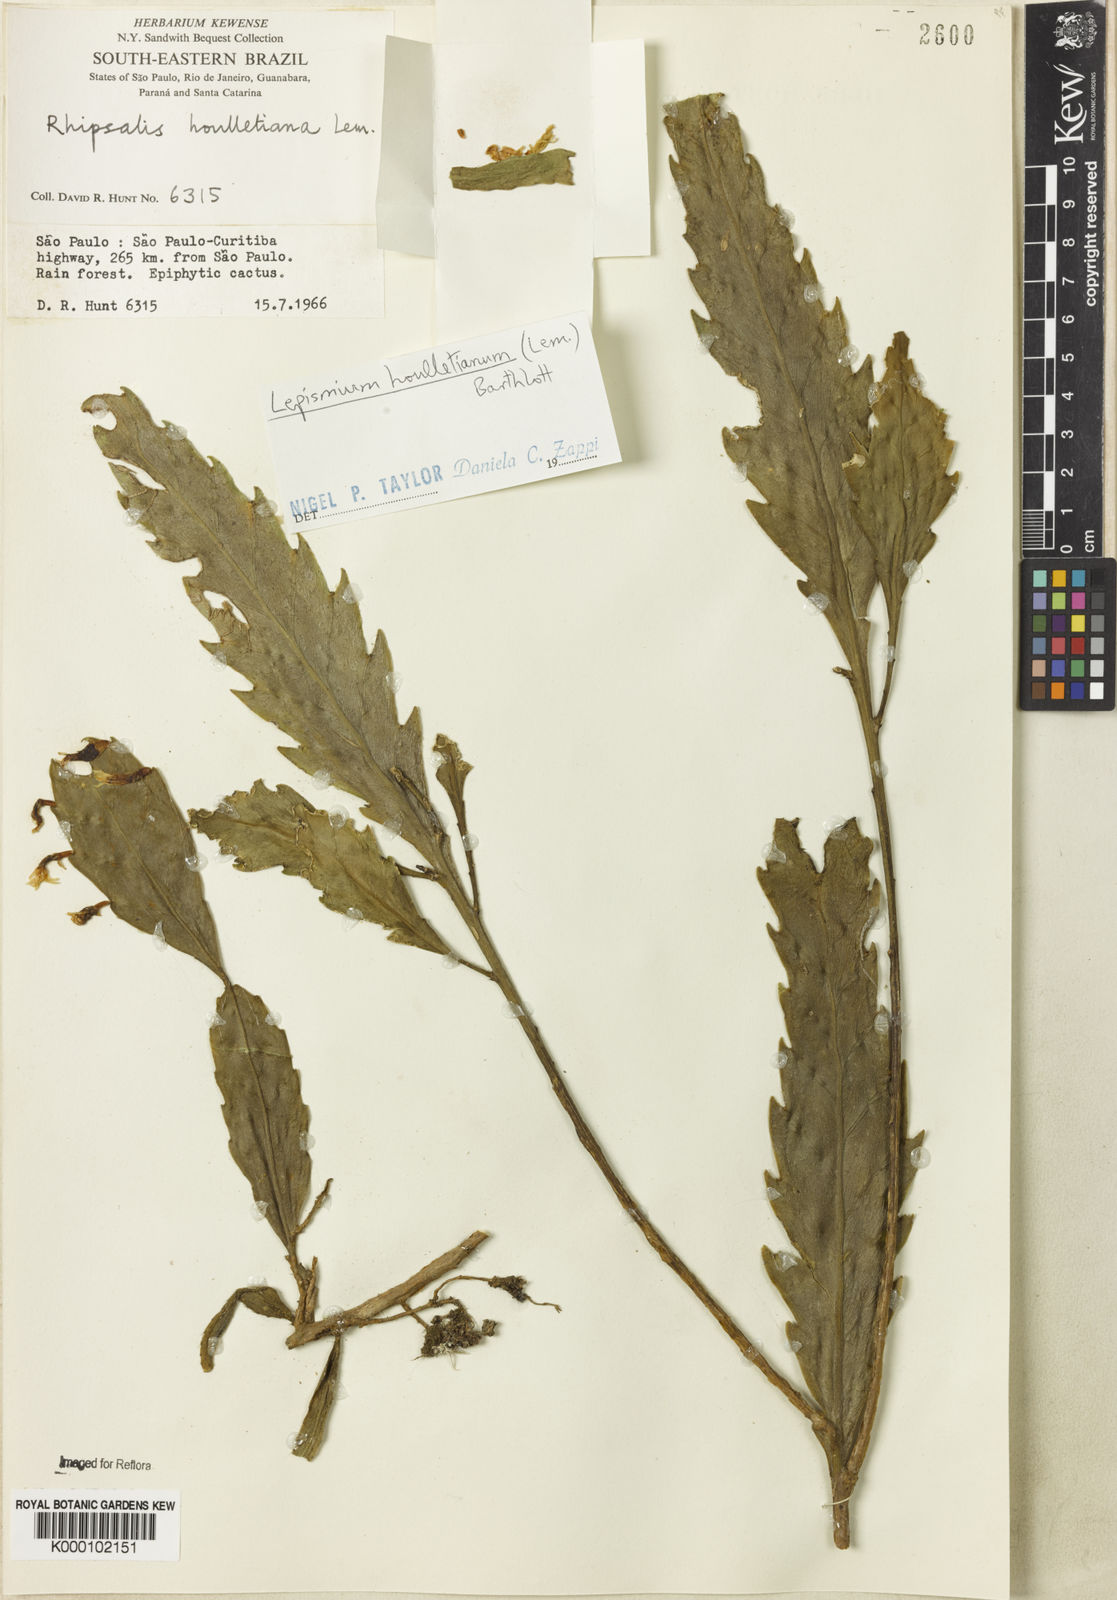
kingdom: Plantae
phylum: Tracheophyta
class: Magnoliopsida
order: Caryophyllales
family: Cactaceae
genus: Lepismium
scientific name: Lepismium houlletianum
